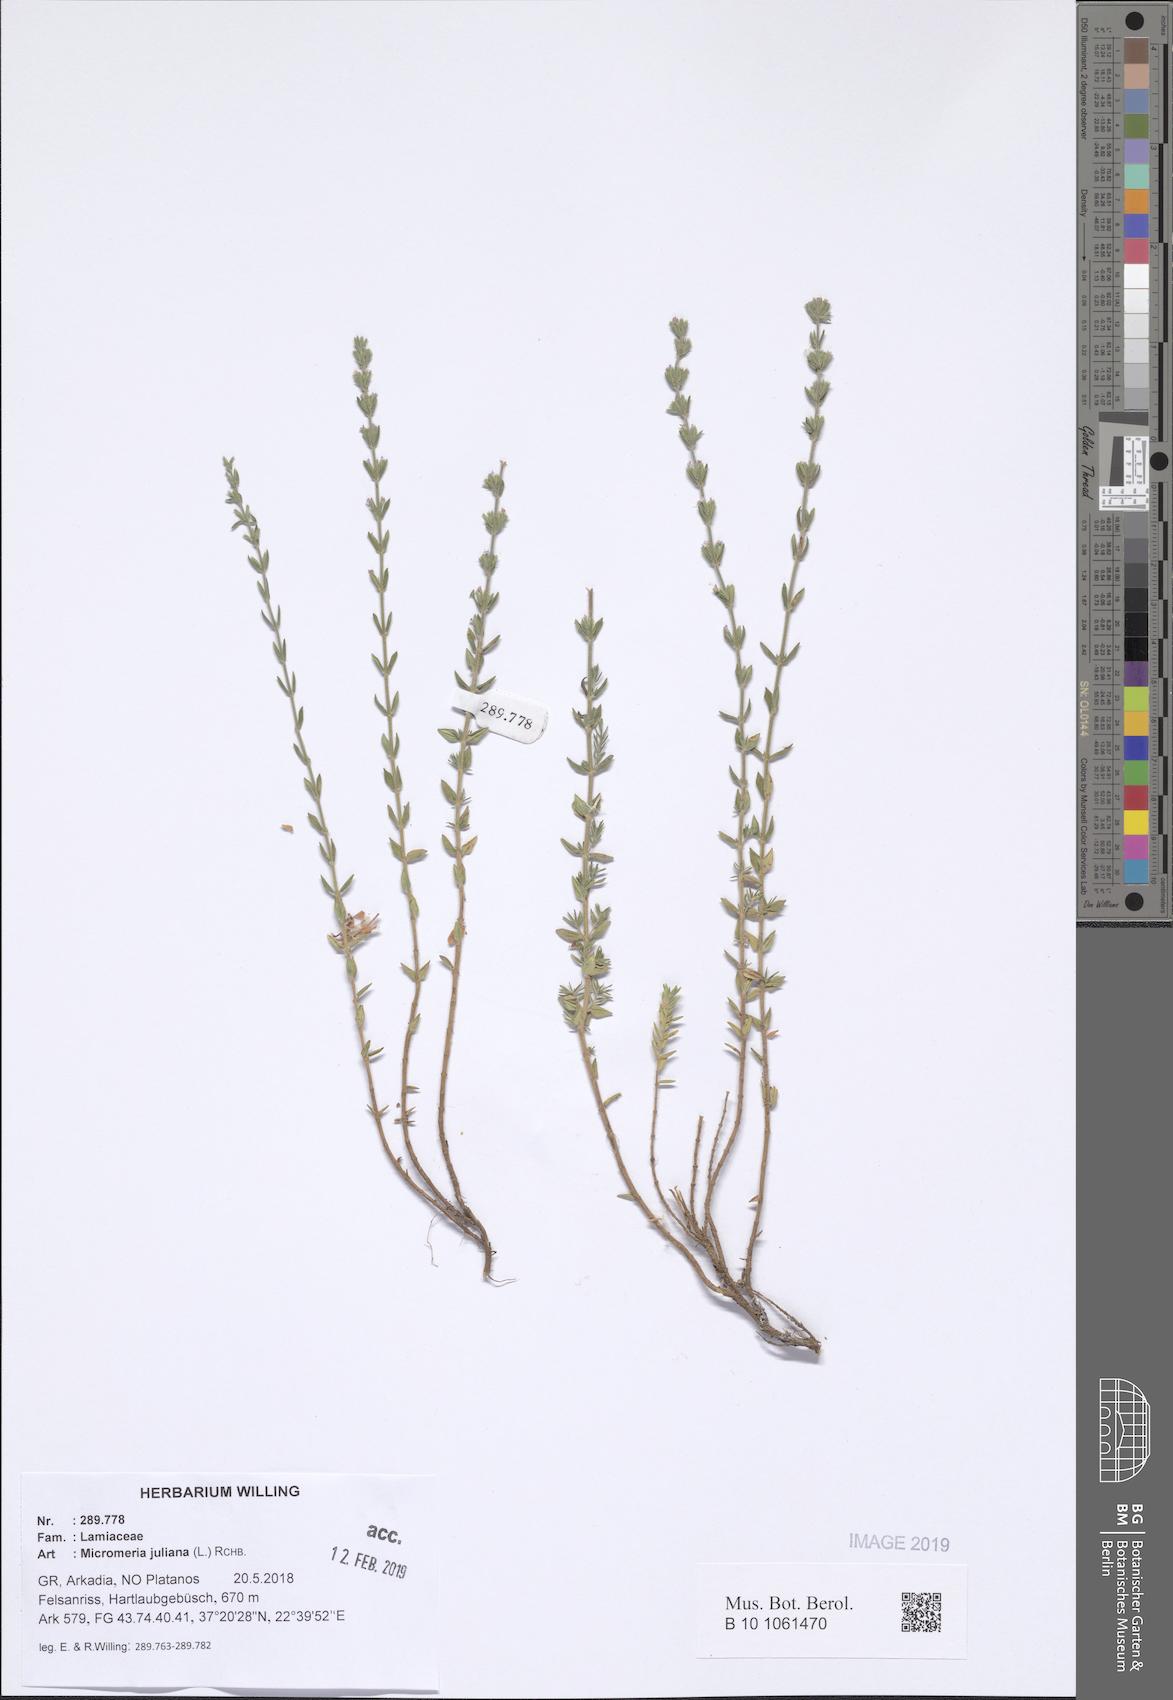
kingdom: Plantae
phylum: Tracheophyta
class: Magnoliopsida
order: Lamiales
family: Lamiaceae
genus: Micromeria
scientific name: Micromeria juliana
